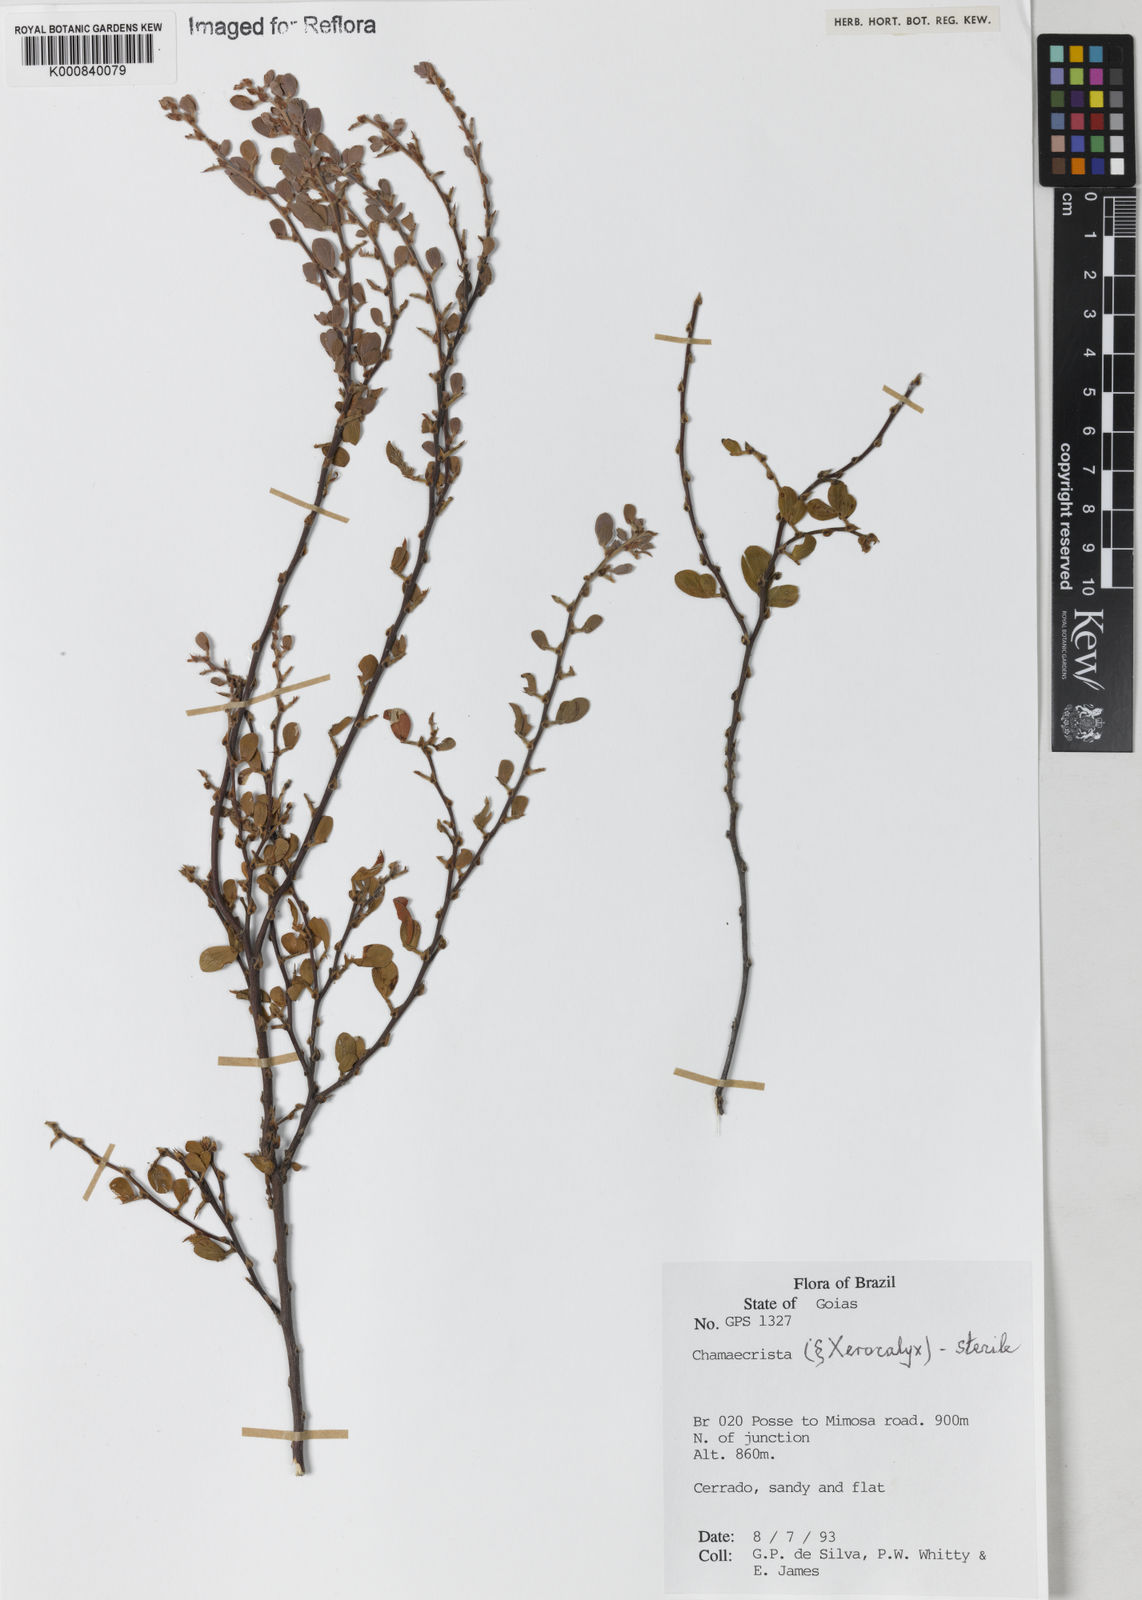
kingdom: Plantae
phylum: Tracheophyta
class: Magnoliopsida
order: Fabales
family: Fabaceae
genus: Chamaecrista
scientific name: Chamaecrista desvauxii
